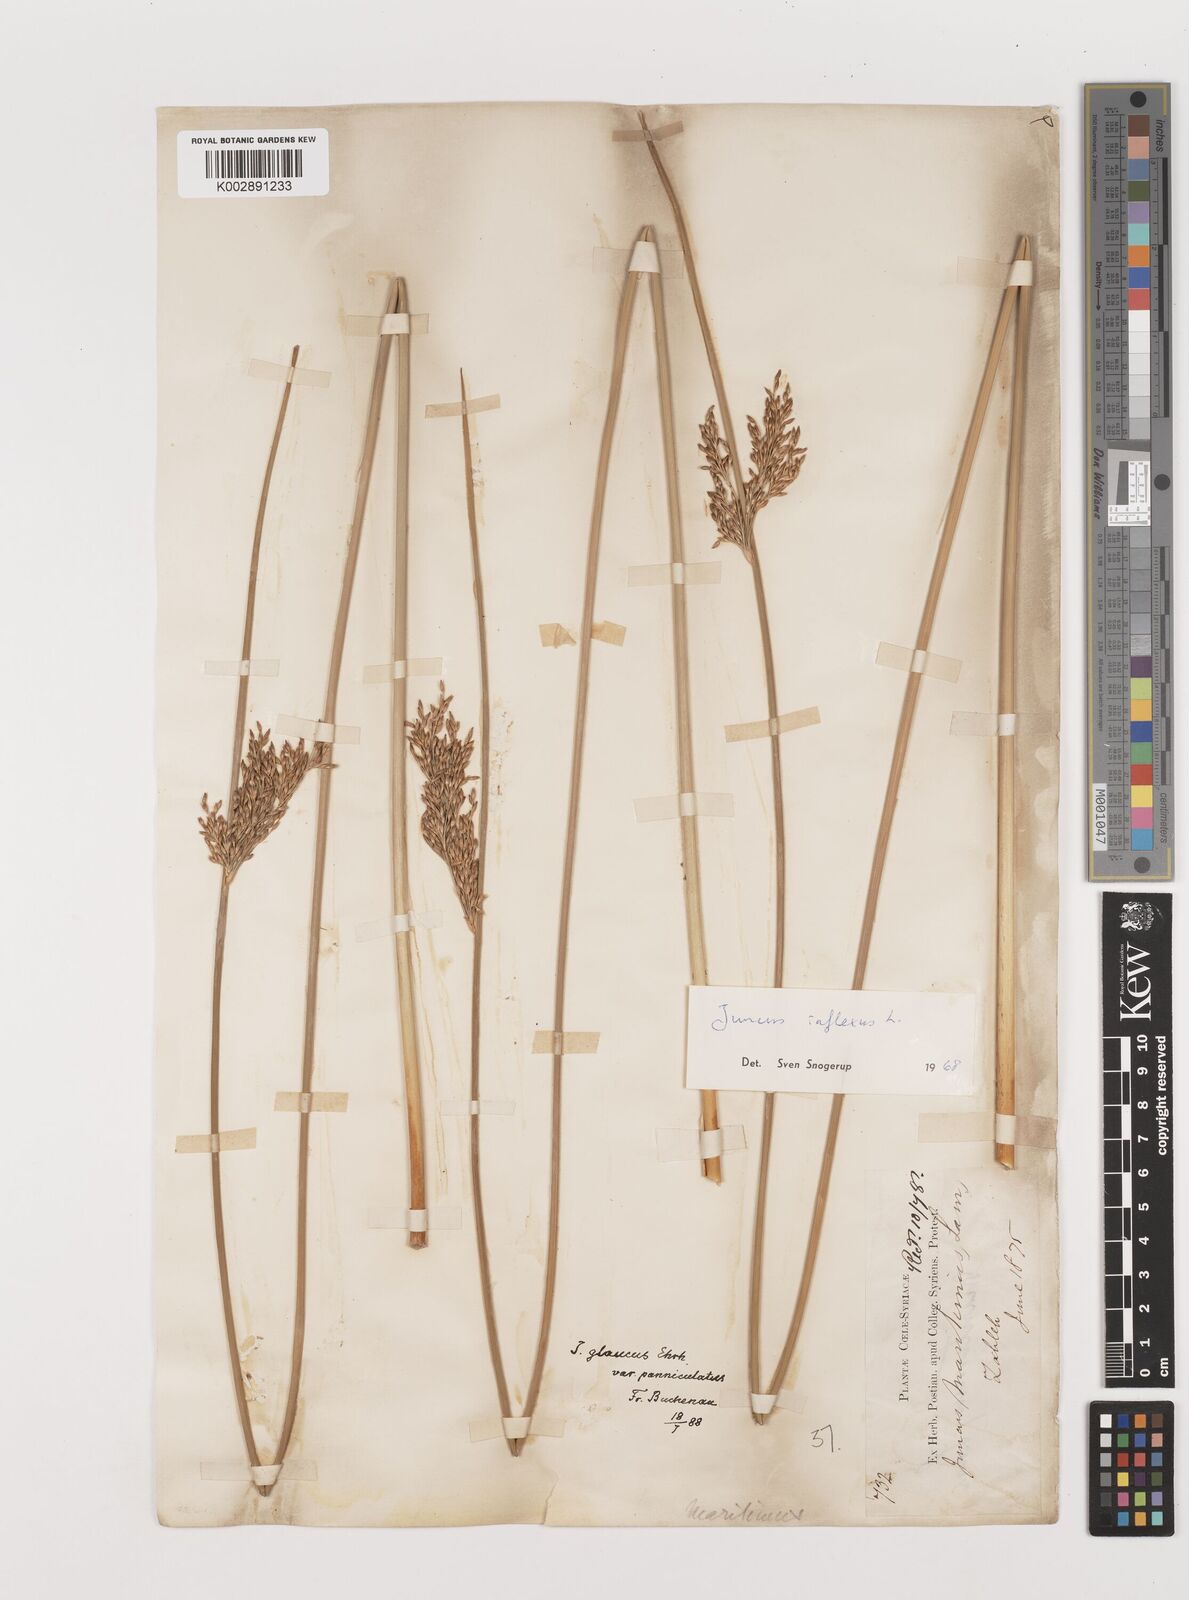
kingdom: Plantae
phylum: Tracheophyta
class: Liliopsida
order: Poales
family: Juncaceae
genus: Juncus
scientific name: Juncus inflexus
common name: Hard rush
